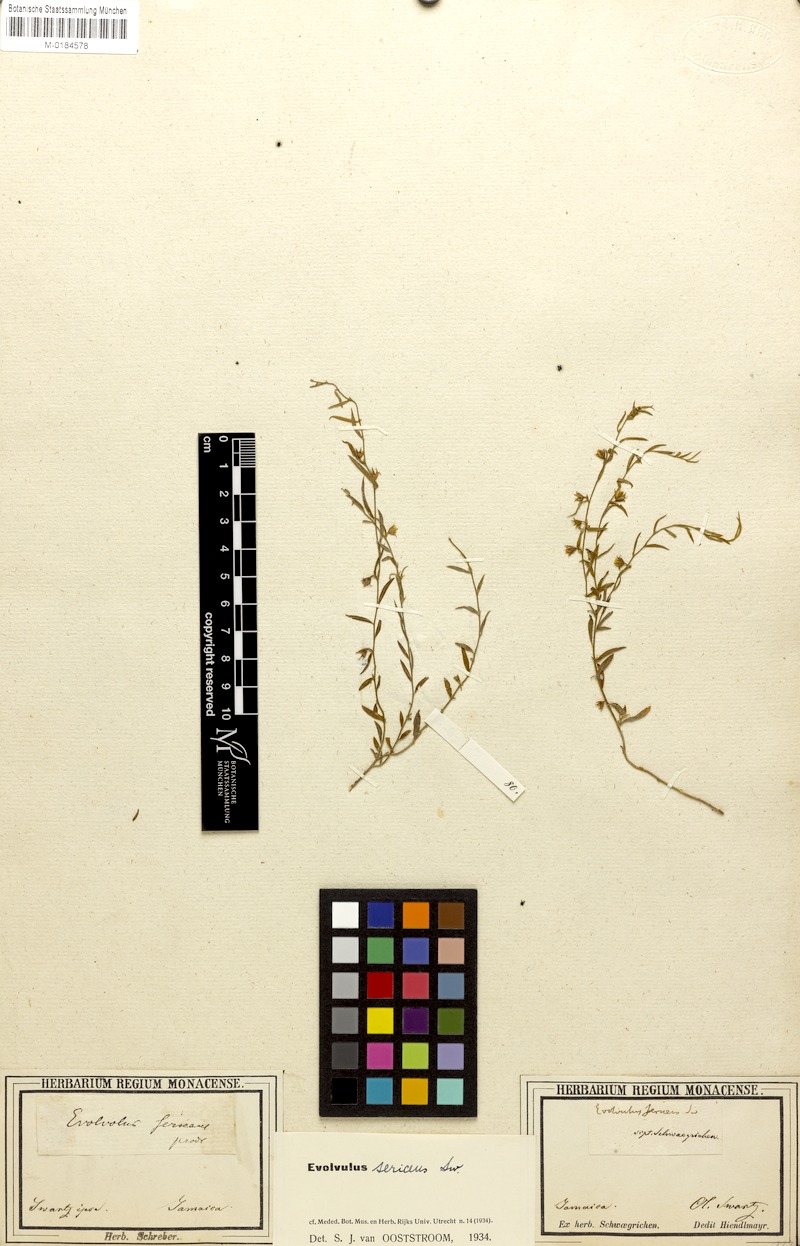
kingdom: Plantae
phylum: Tracheophyta
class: Magnoliopsida
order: Solanales
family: Convolvulaceae
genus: Evolvulus
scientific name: Evolvulus sericeus
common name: Blue dots
